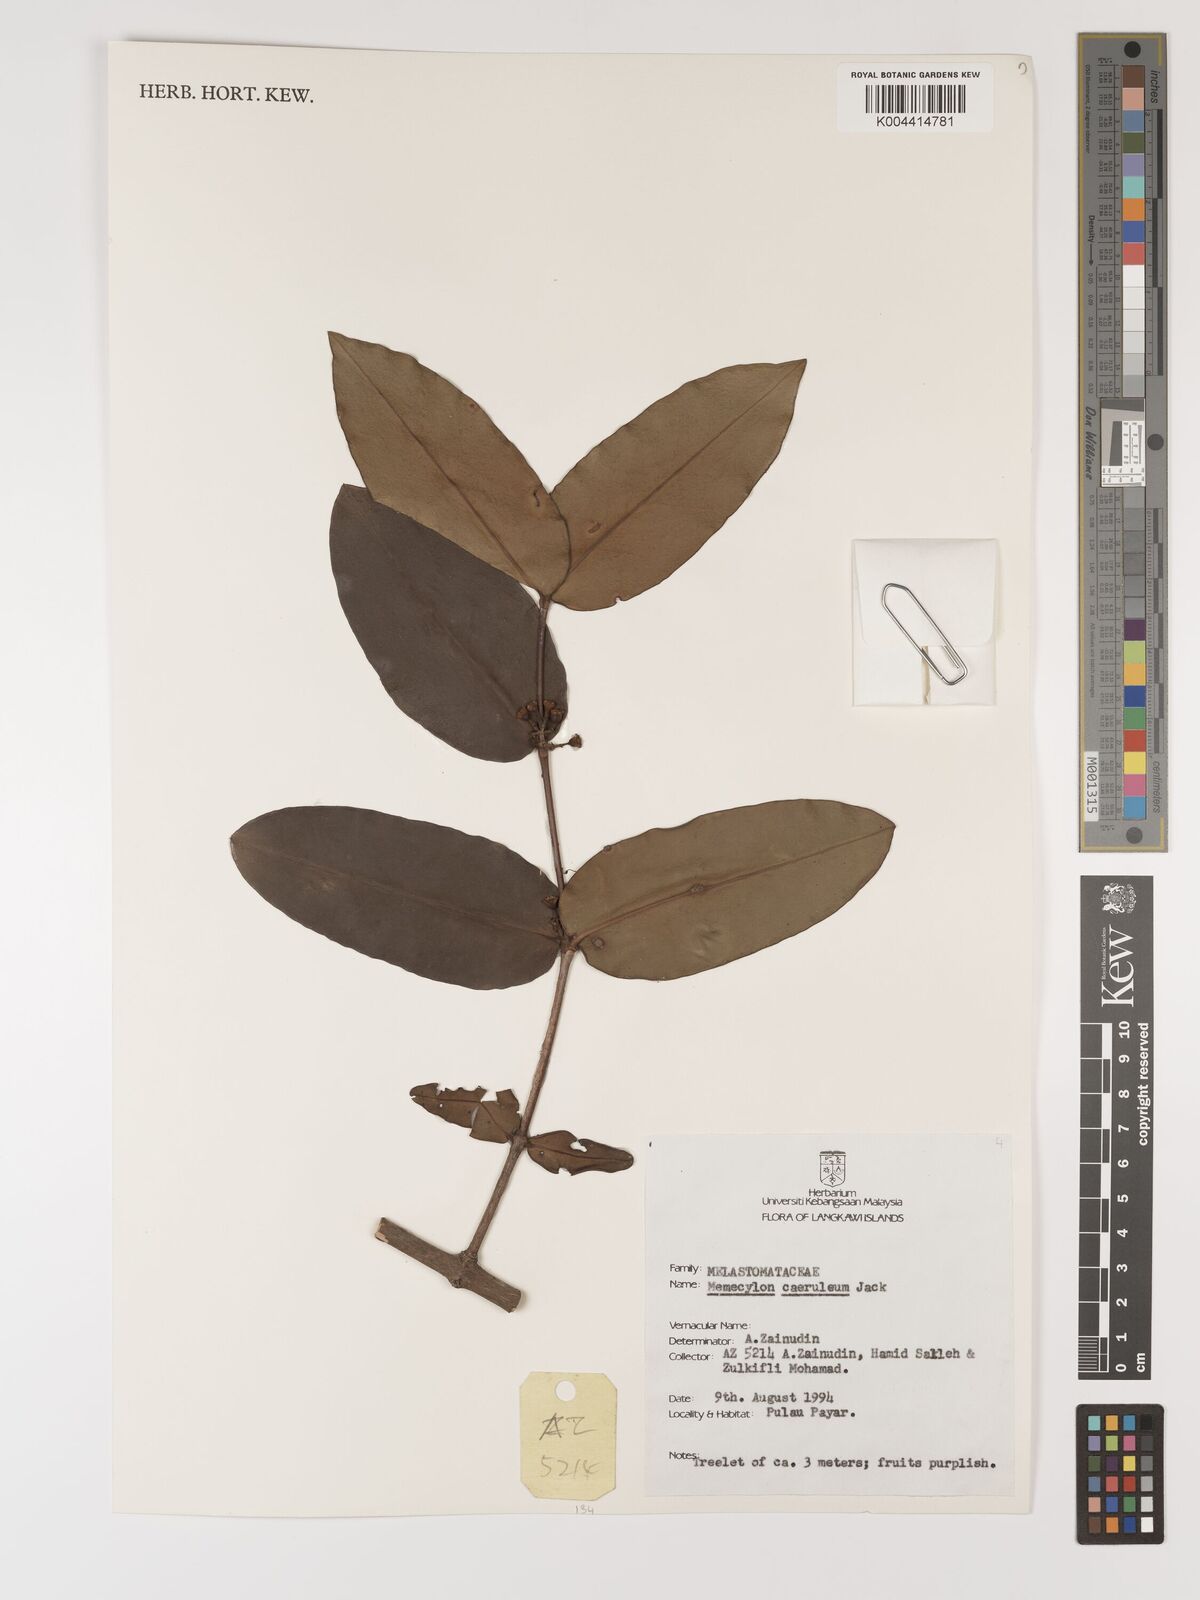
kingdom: Plantae
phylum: Tracheophyta
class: Magnoliopsida
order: Myrtales
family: Melastomataceae
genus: Memecylon
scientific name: Memecylon
